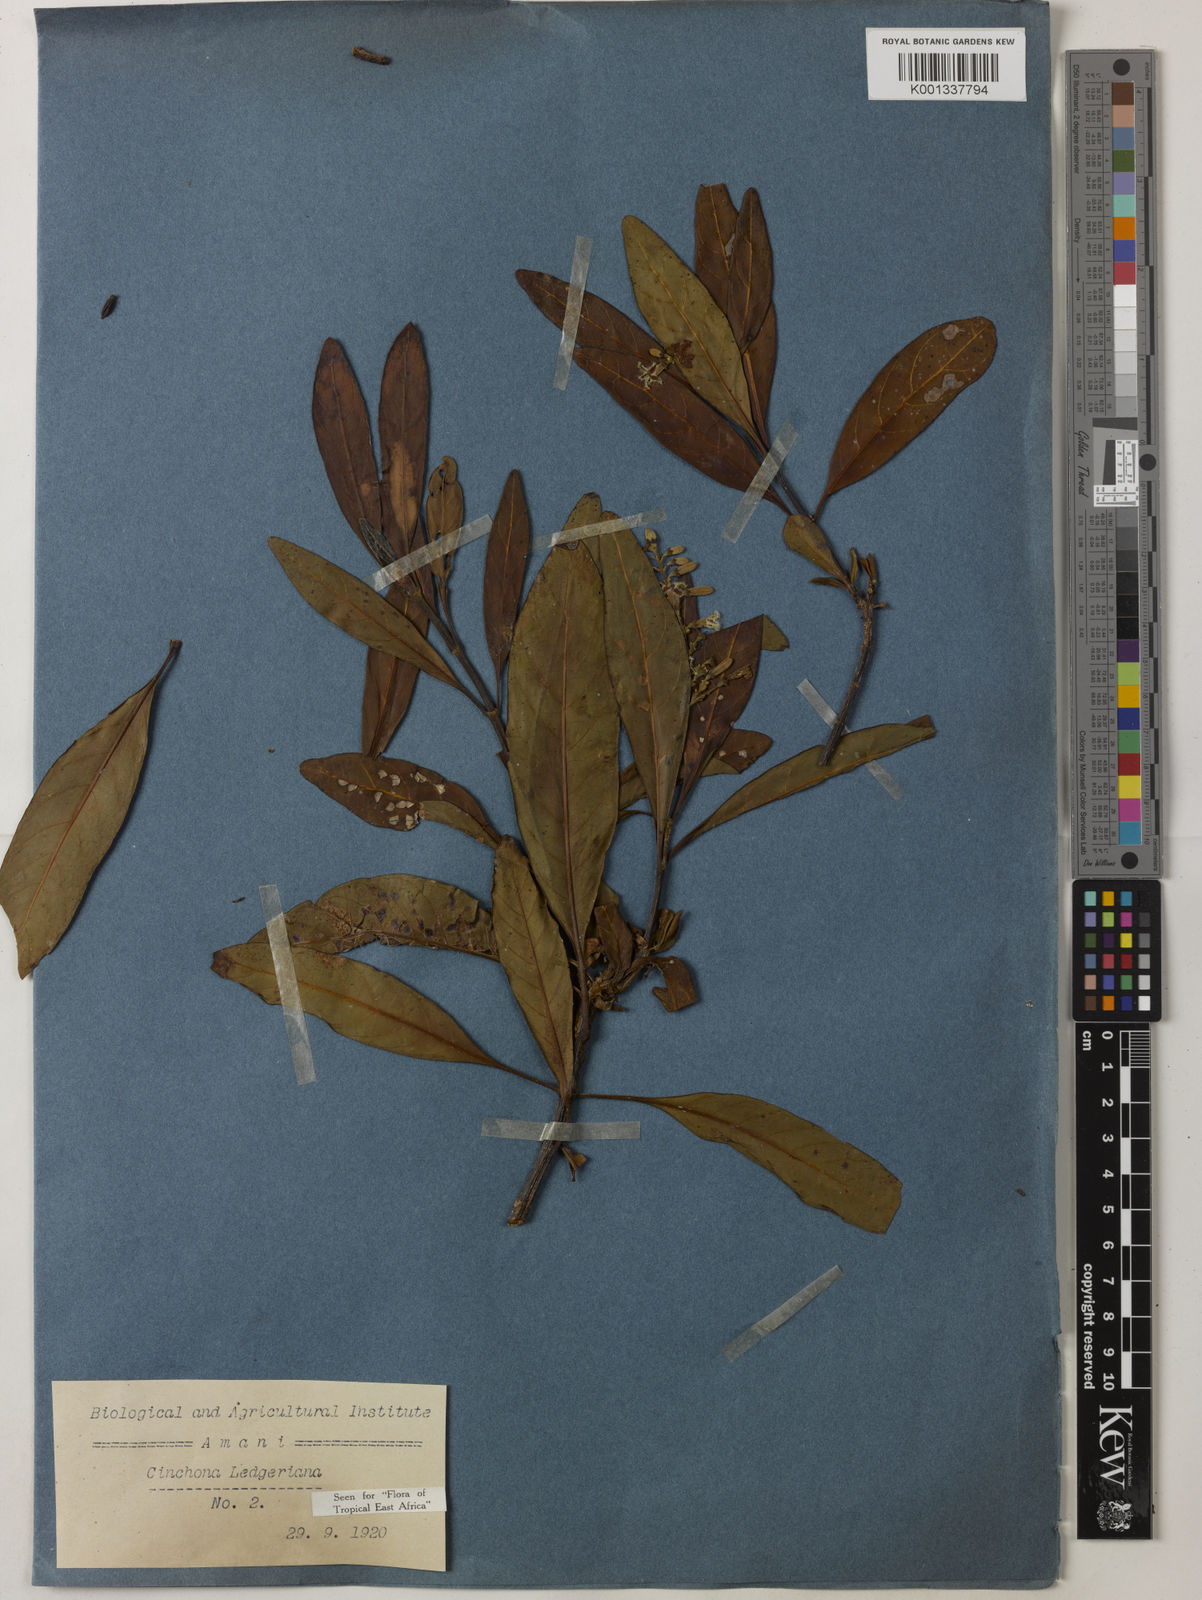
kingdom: Plantae
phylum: Tracheophyta
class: Magnoliopsida
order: Gentianales
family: Rubiaceae
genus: Cinchona
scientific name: Cinchona calisaya
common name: Ledgerbark
